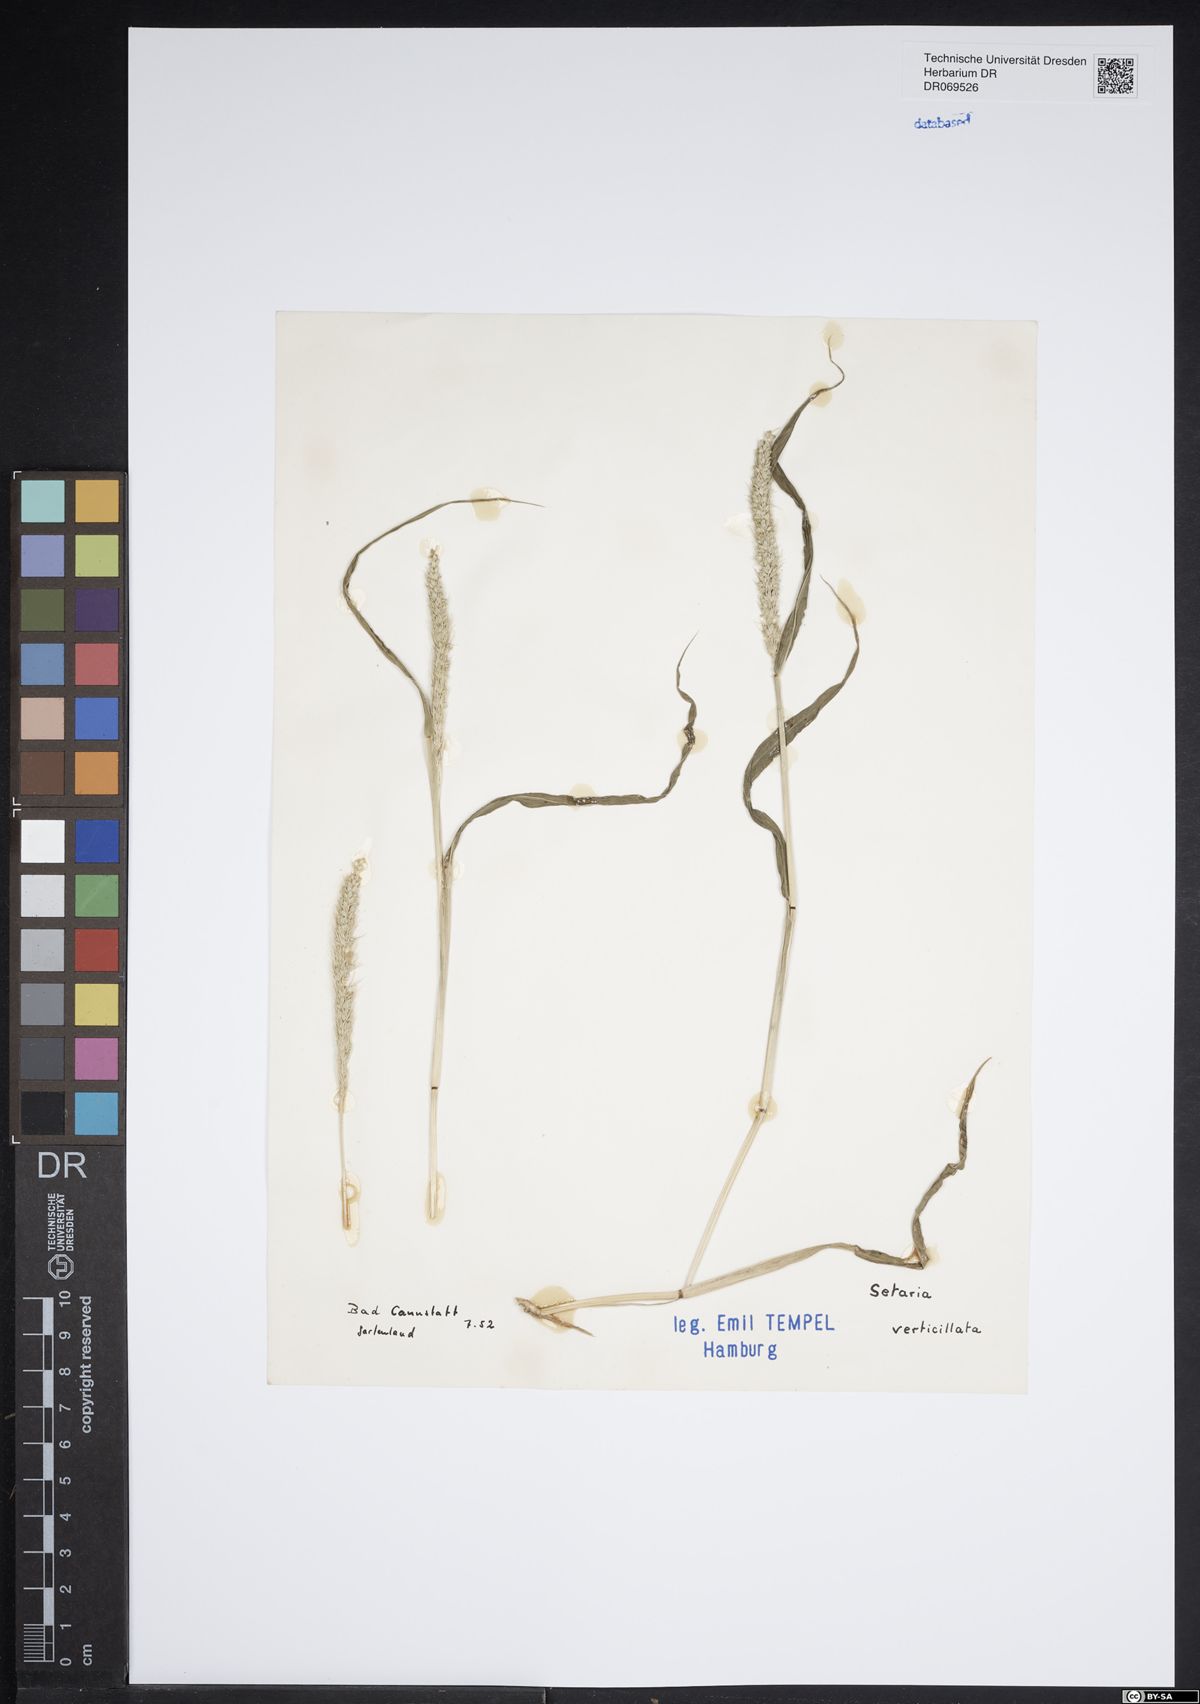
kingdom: Plantae
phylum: Tracheophyta
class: Liliopsida
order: Poales
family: Poaceae
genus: Setaria
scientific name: Setaria verticillata
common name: Hooked bristlegrass
